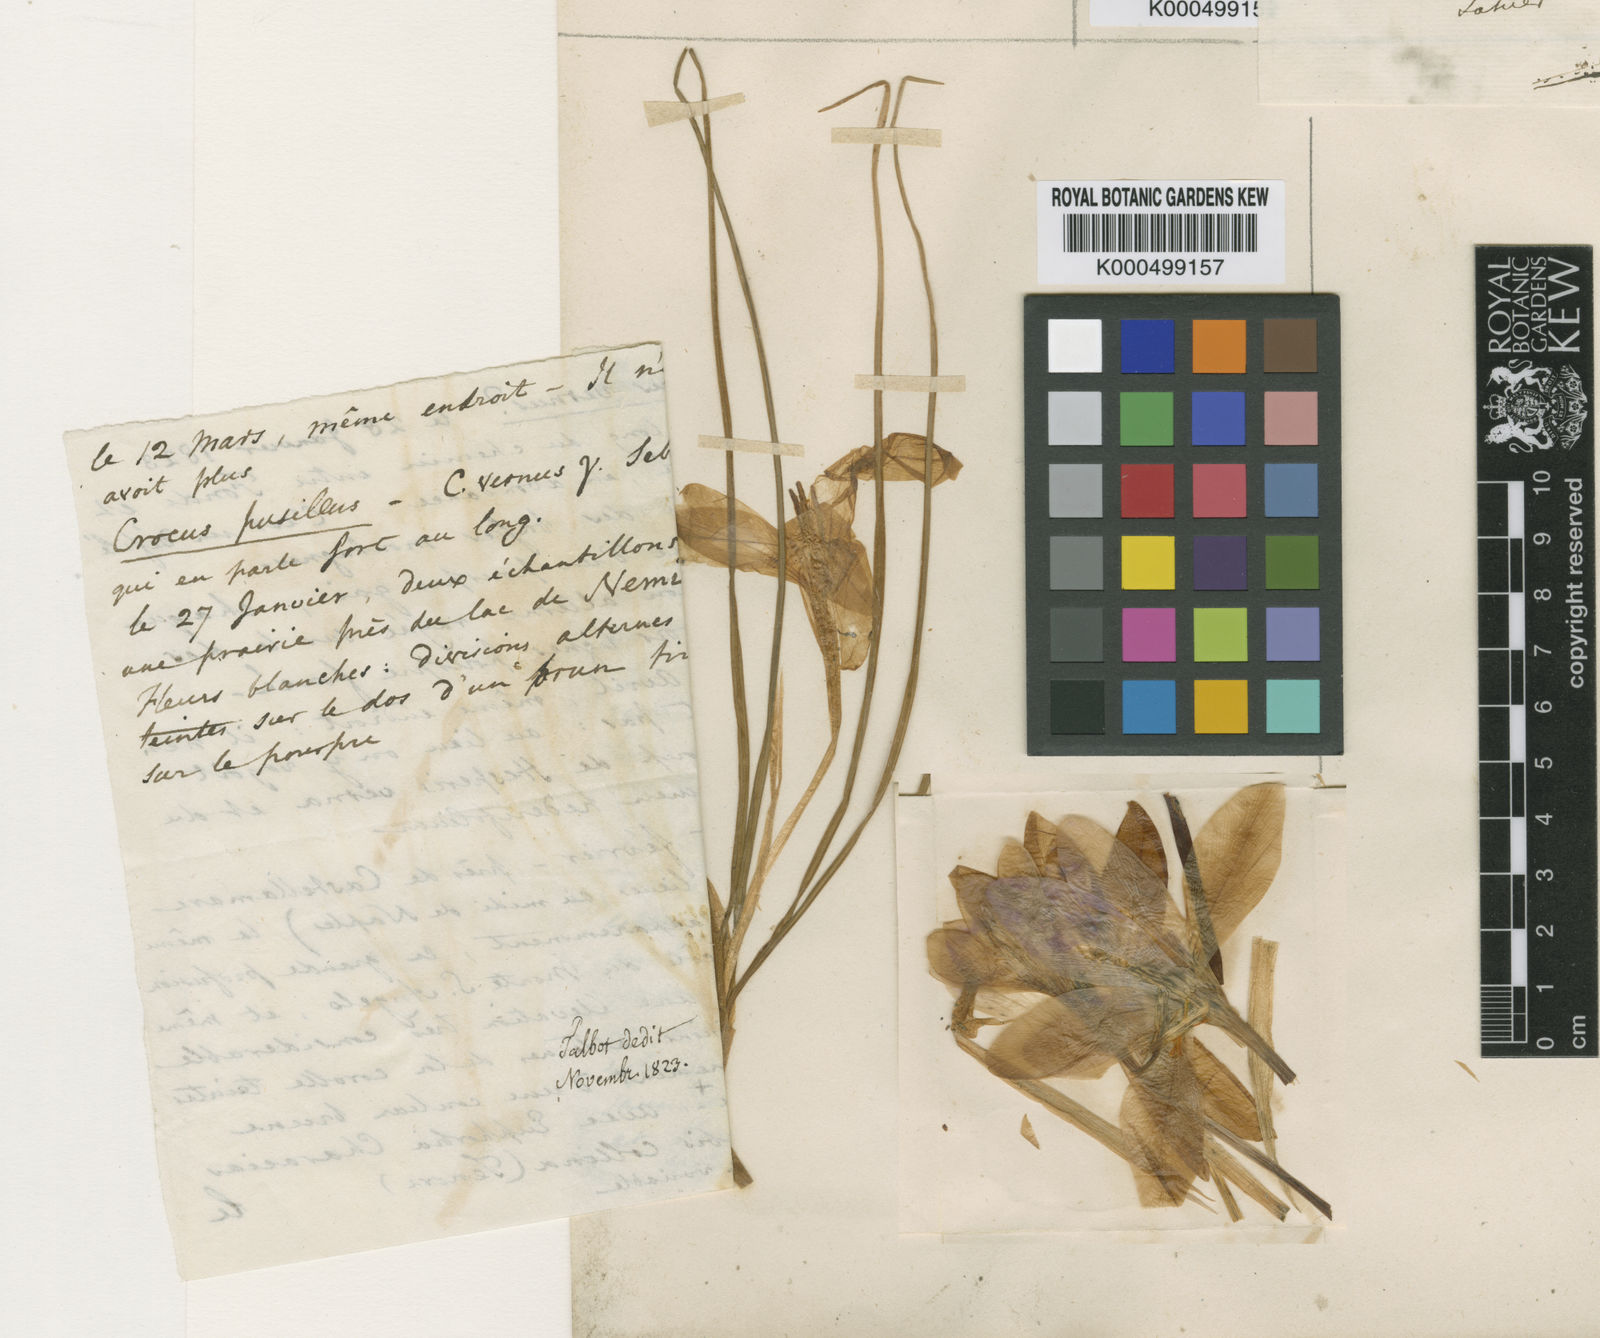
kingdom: Plantae
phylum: Tracheophyta
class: Liliopsida
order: Asparagales
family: Iridaceae
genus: Crocus
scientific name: Crocus suaveolens
